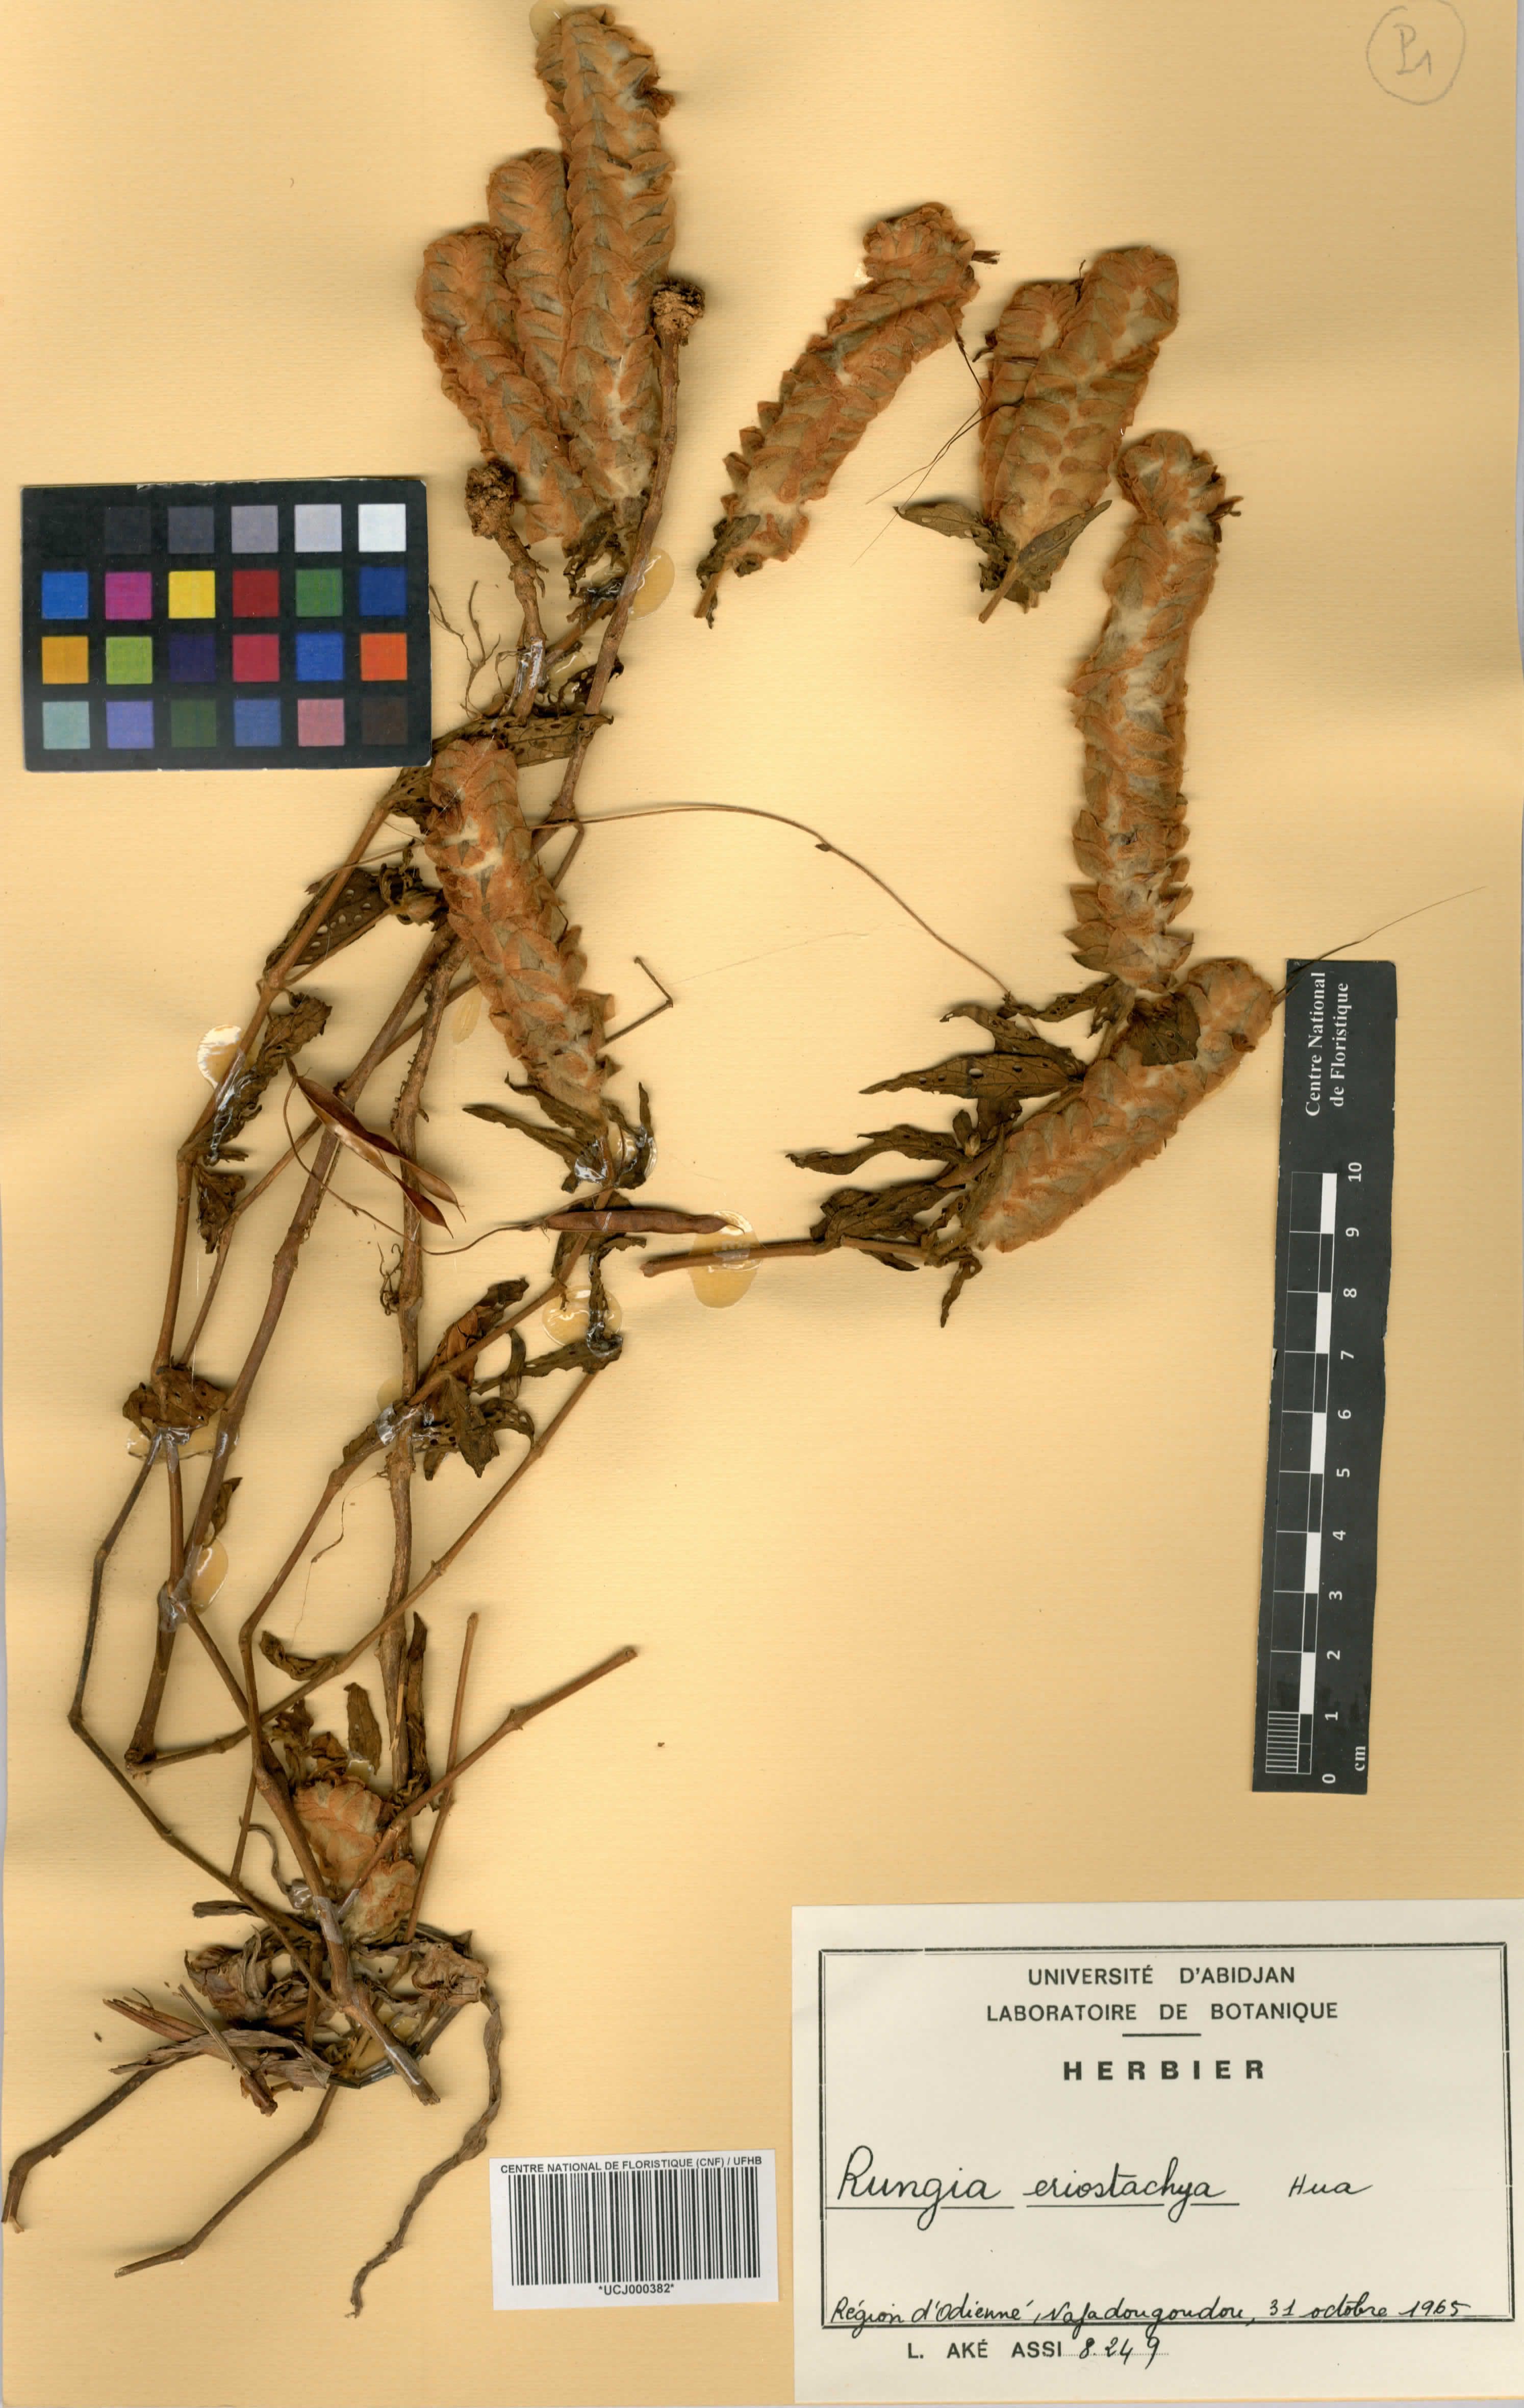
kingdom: Plantae
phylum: Tracheophyta
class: Magnoliopsida
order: Lamiales
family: Acanthaceae
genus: Rungia
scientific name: Rungia eriostachya
